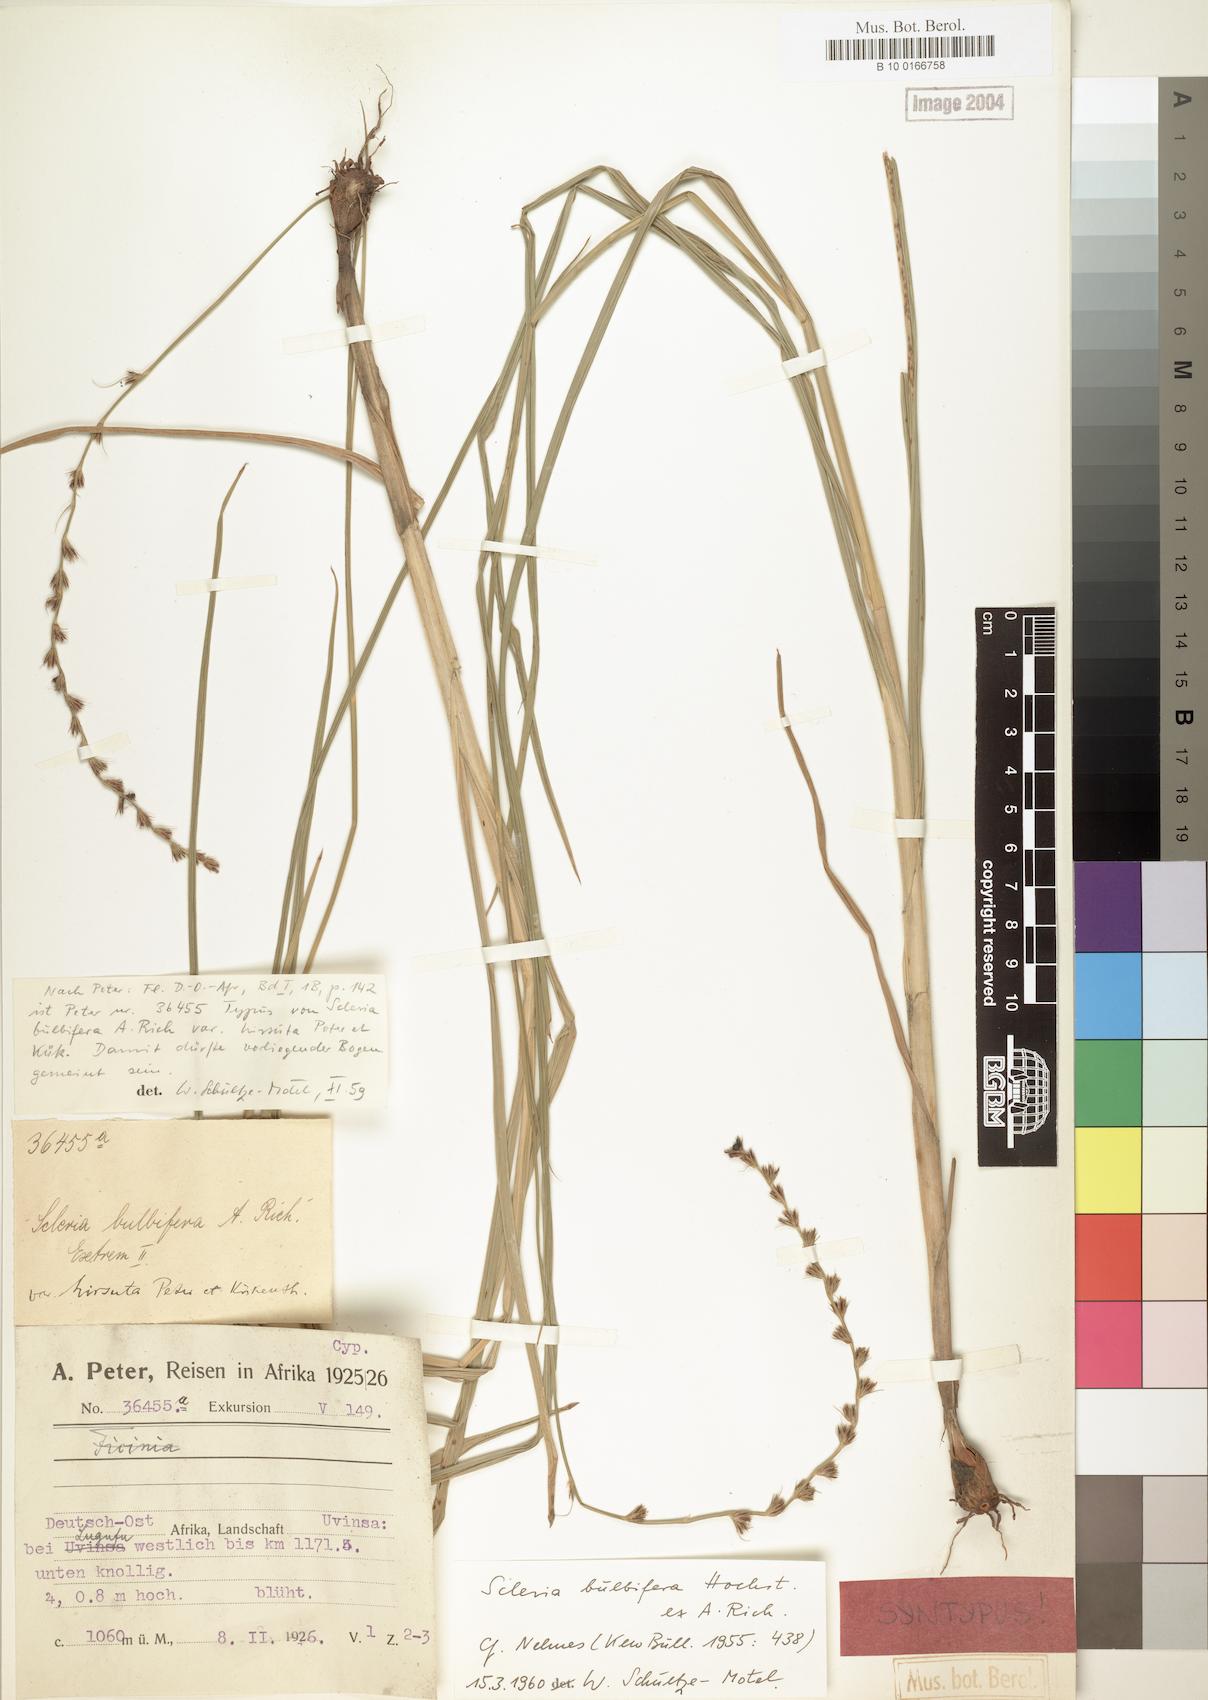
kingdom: Plantae
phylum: Tracheophyta
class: Liliopsida
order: Poales
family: Cyperaceae
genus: Scleria
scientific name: Scleria bulbifera
